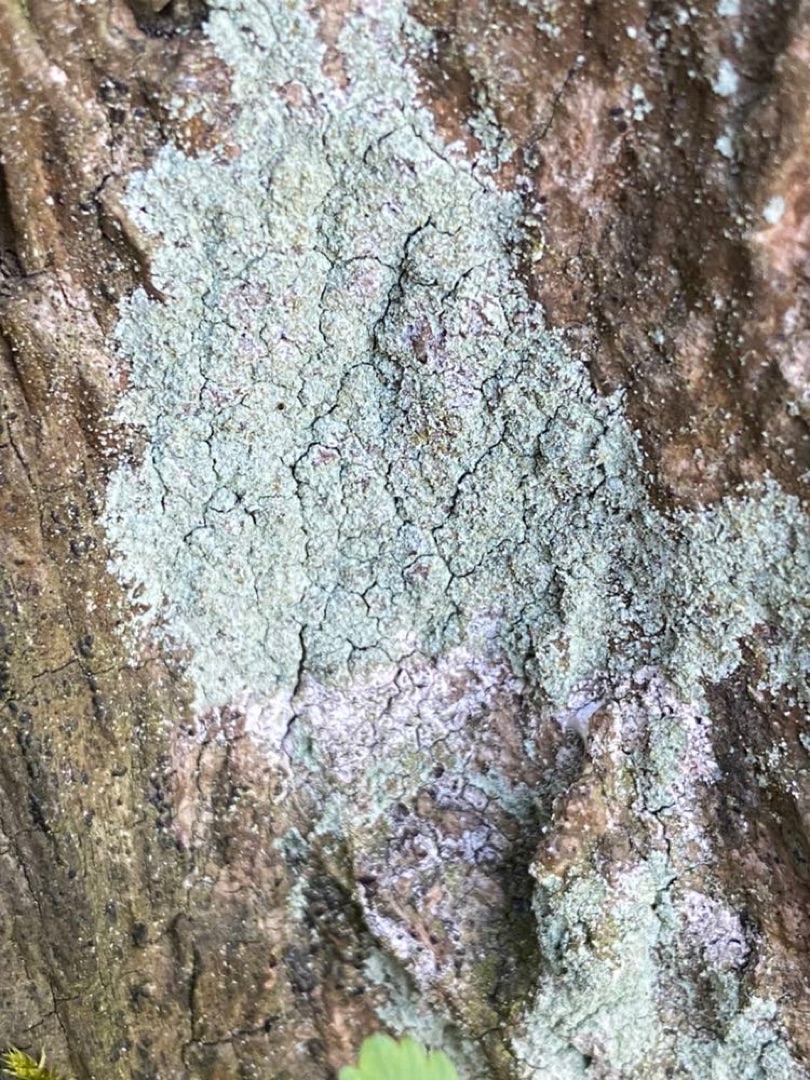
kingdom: Fungi
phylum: Ascomycota
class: Lecanoromycetes
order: Lecanorales
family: Stereocaulaceae
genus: Lepraria
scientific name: Lepraria incana
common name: Almindelig støvlav
